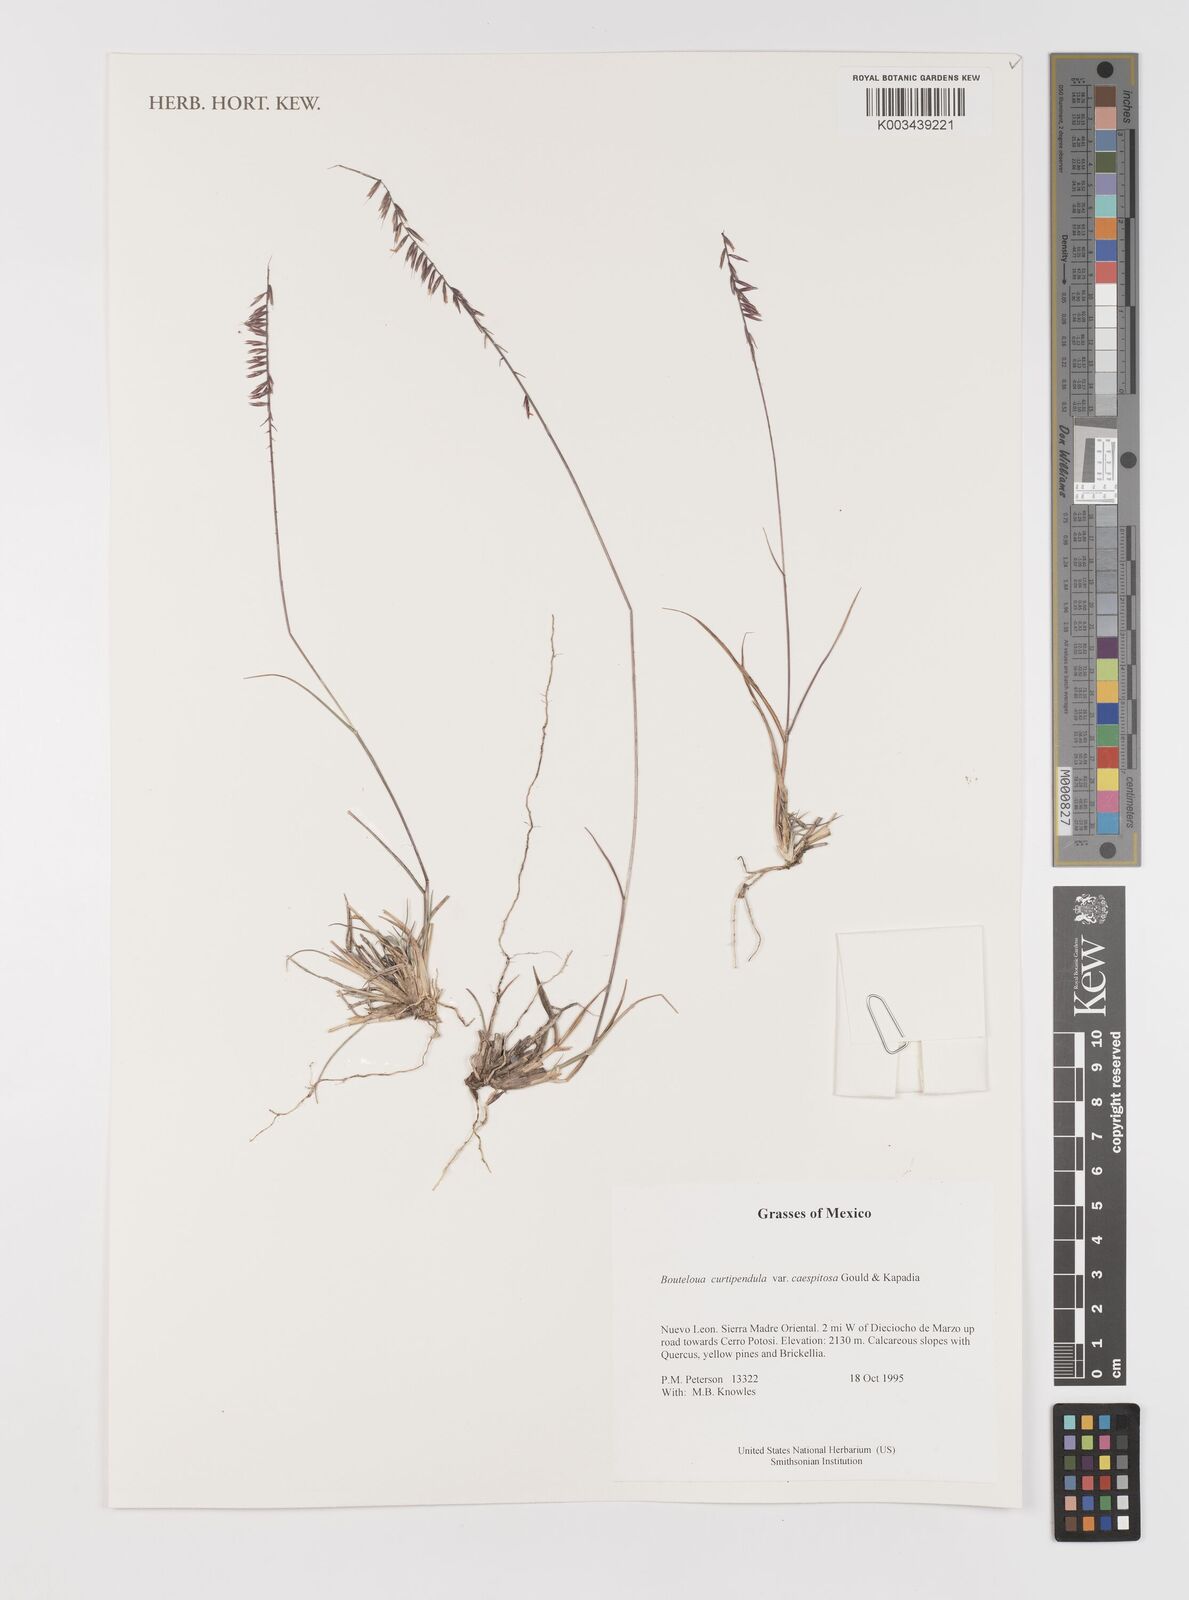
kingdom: Plantae
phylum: Tracheophyta
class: Liliopsida
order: Poales
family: Poaceae
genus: Bouteloua
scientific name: Bouteloua curtipendula
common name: Side-oats grama
